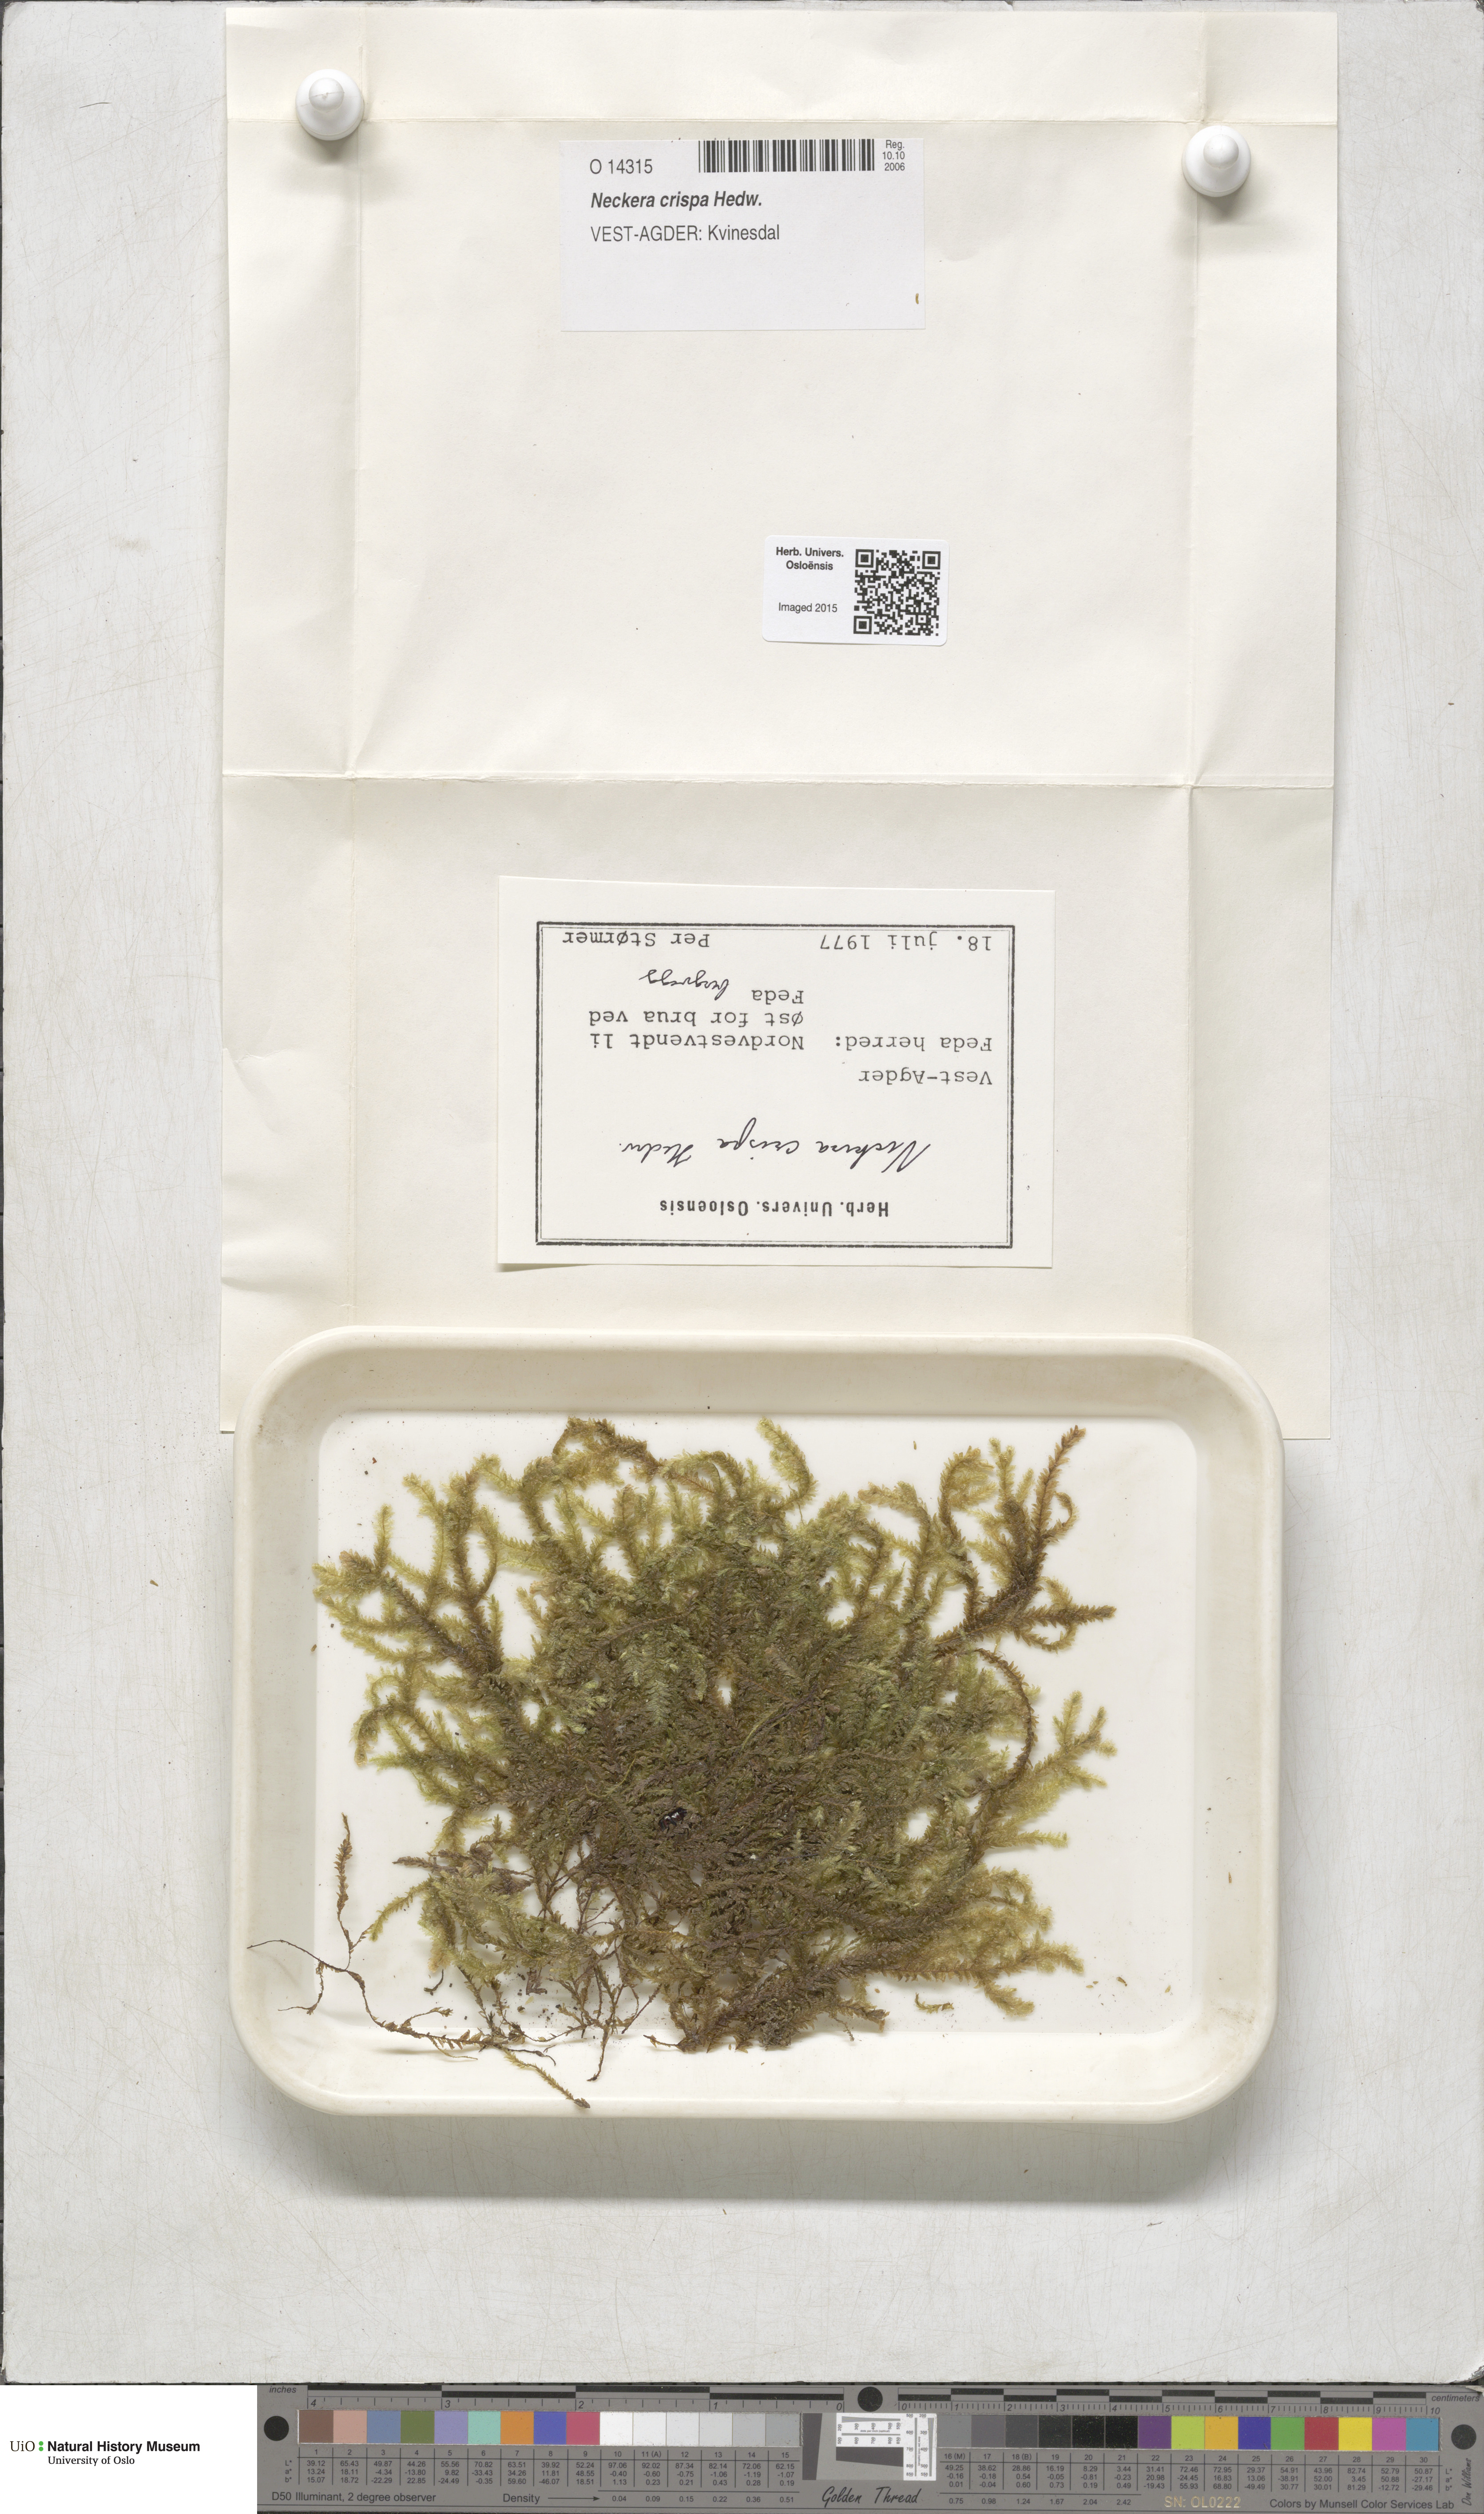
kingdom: Plantae
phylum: Bryophyta
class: Bryopsida
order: Hypnales
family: Neckeraceae
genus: Exsertotheca
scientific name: Exsertotheca crispa
